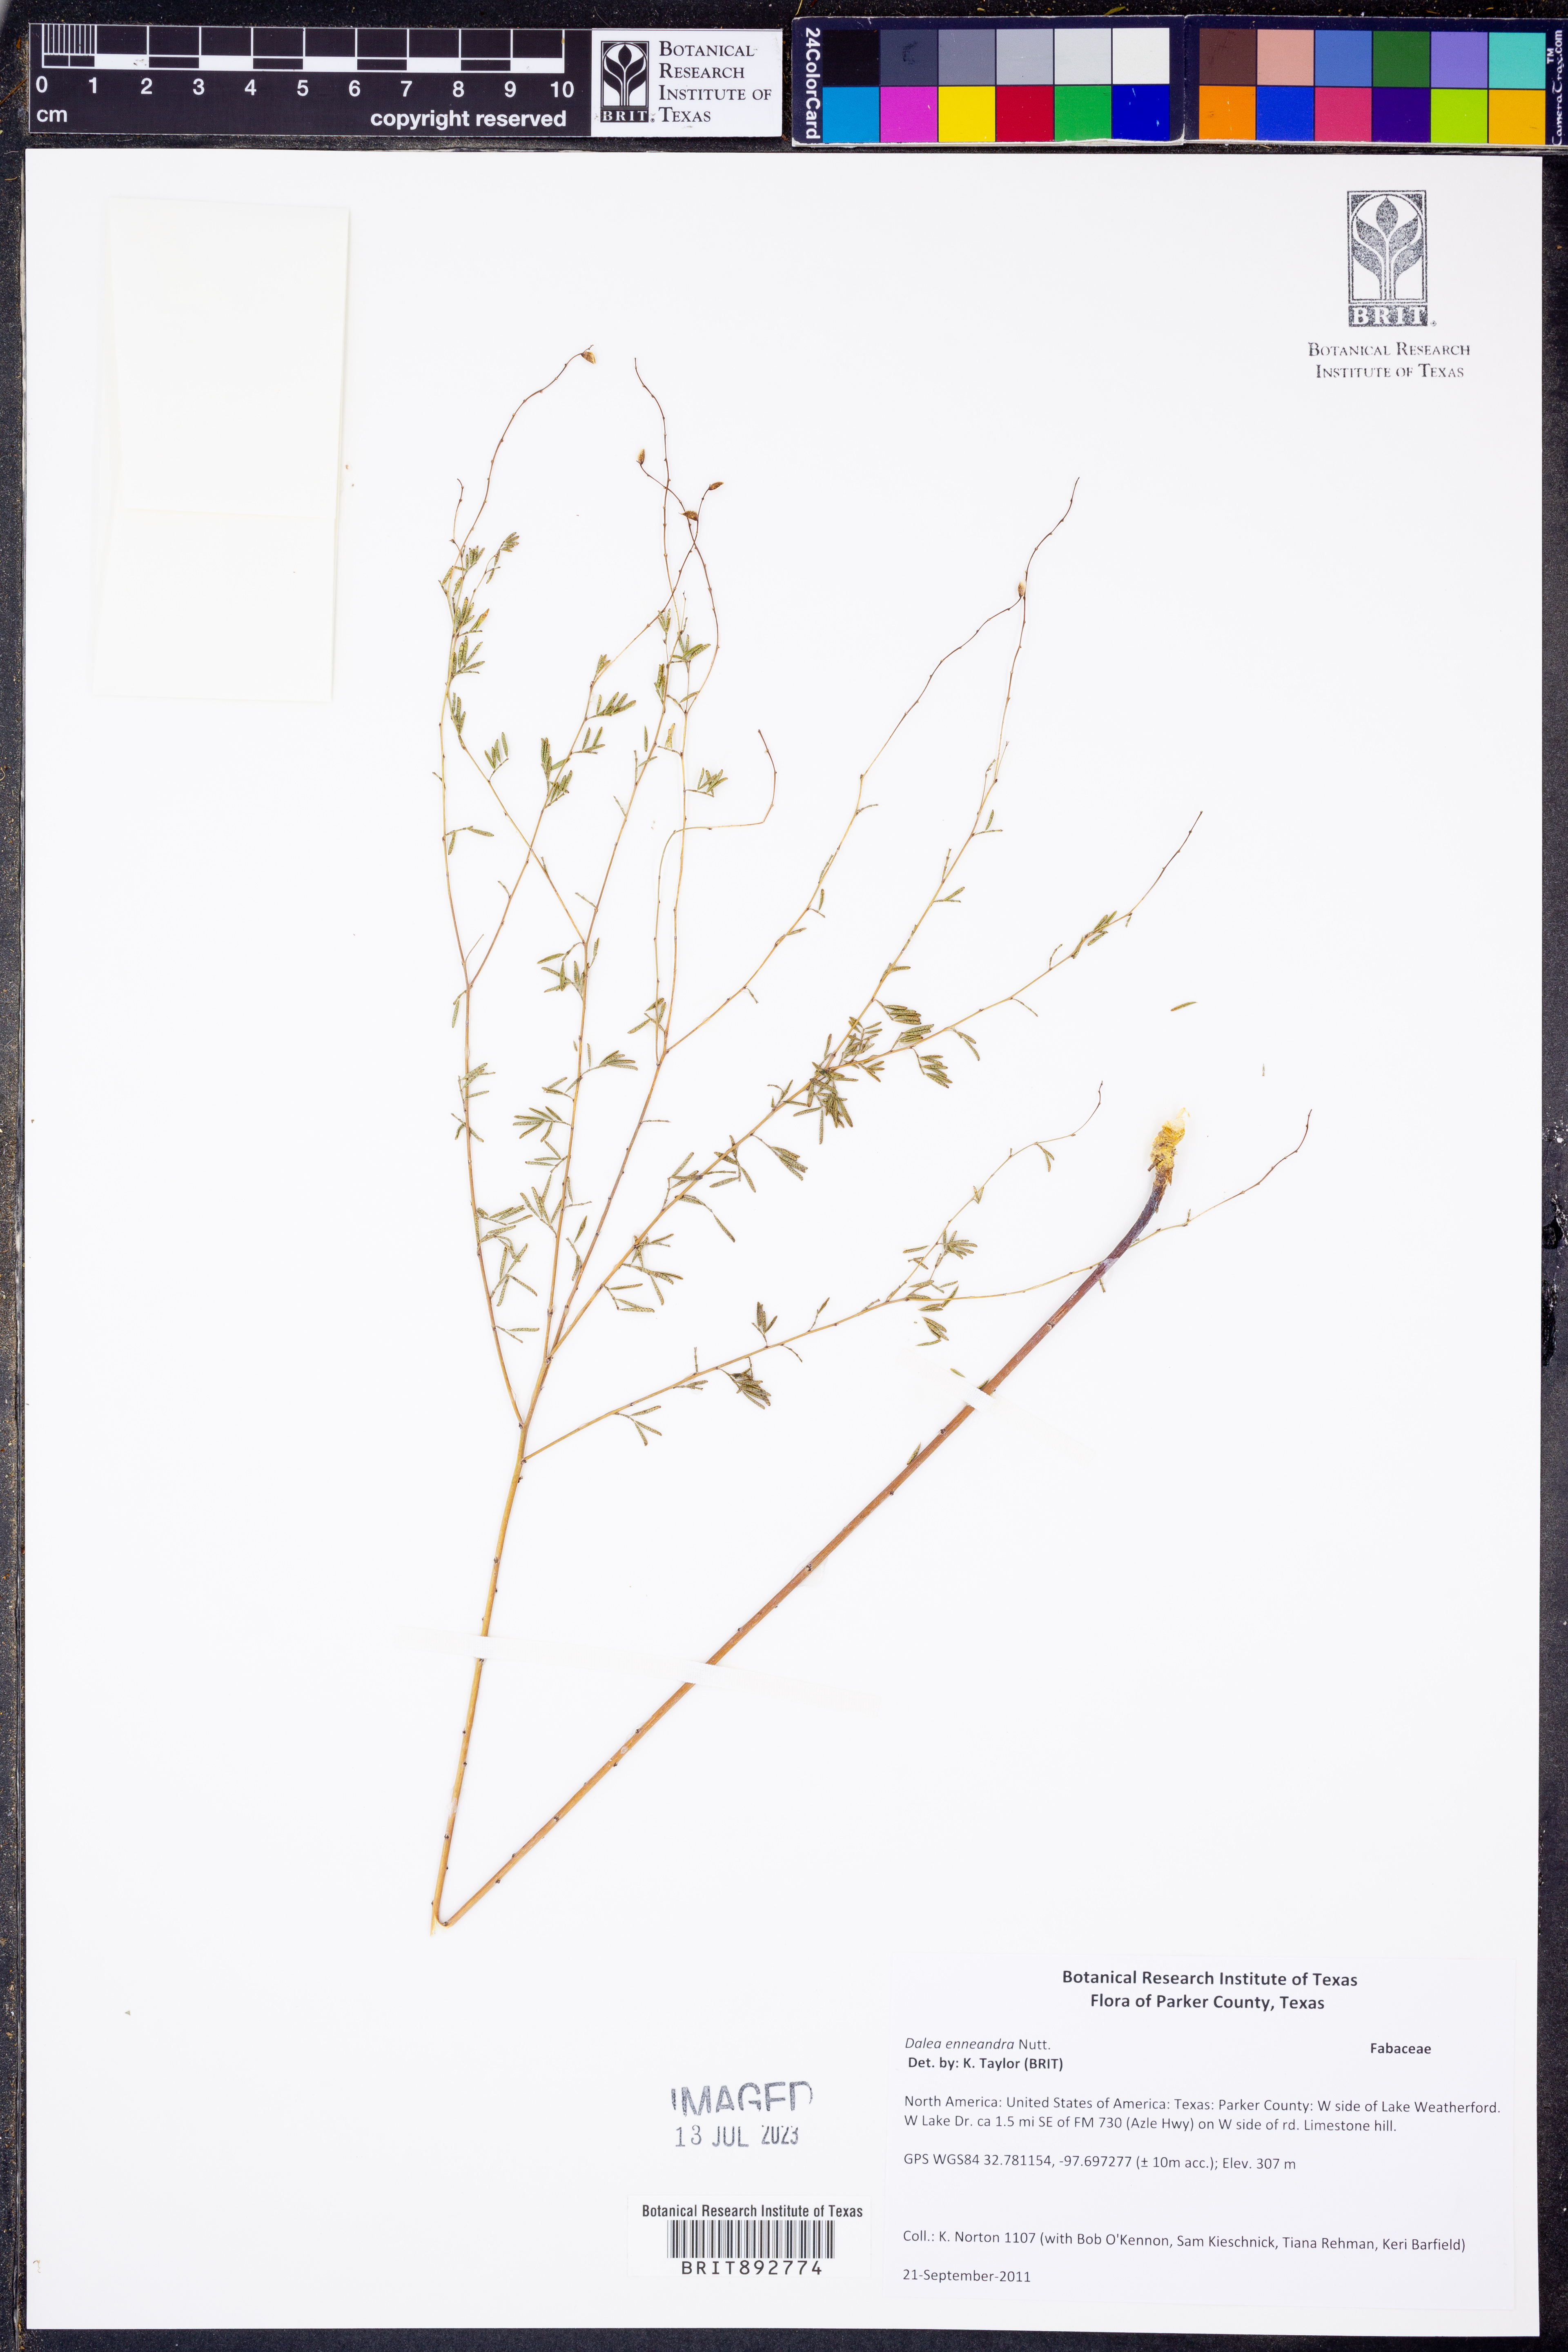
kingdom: Plantae
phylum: Tracheophyta
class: Magnoliopsida
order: Fabales
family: Fabaceae
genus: Dalea
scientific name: Dalea enneandra
